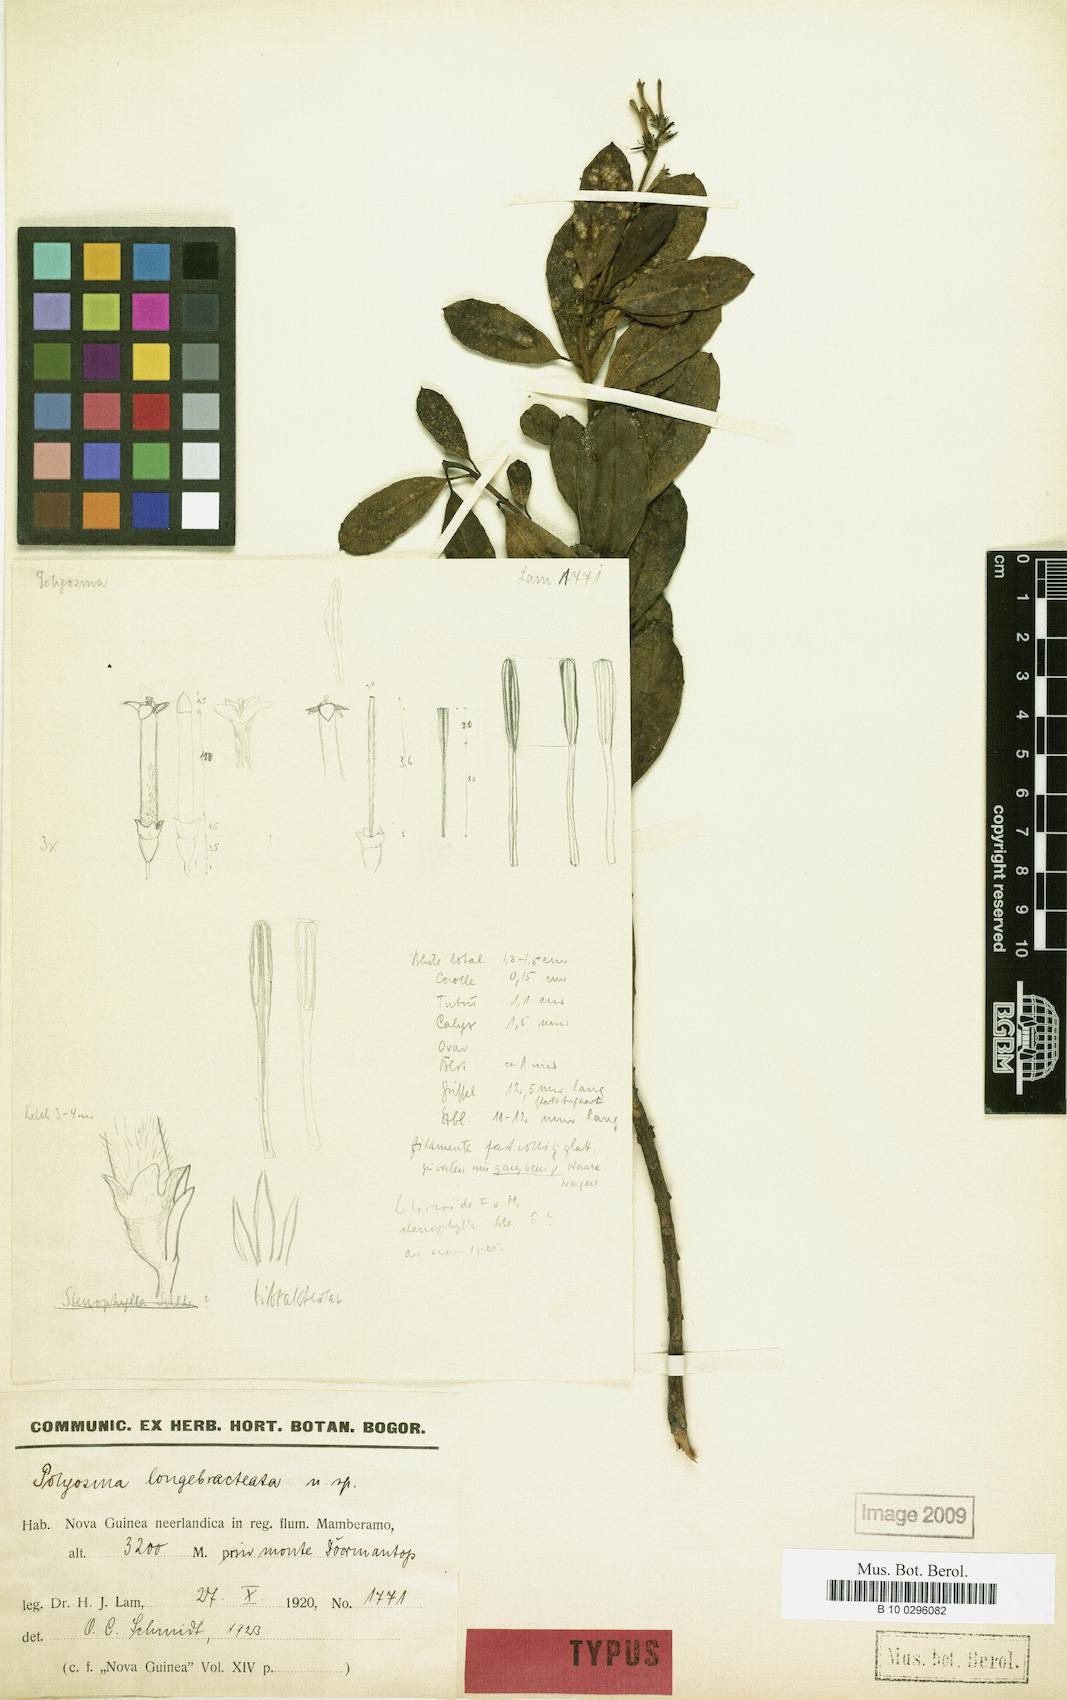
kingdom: Plantae
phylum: Tracheophyta
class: Magnoliopsida
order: Escalloniales
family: Escalloniaceae
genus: Polyosma
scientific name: Polyosma longebracteolata
